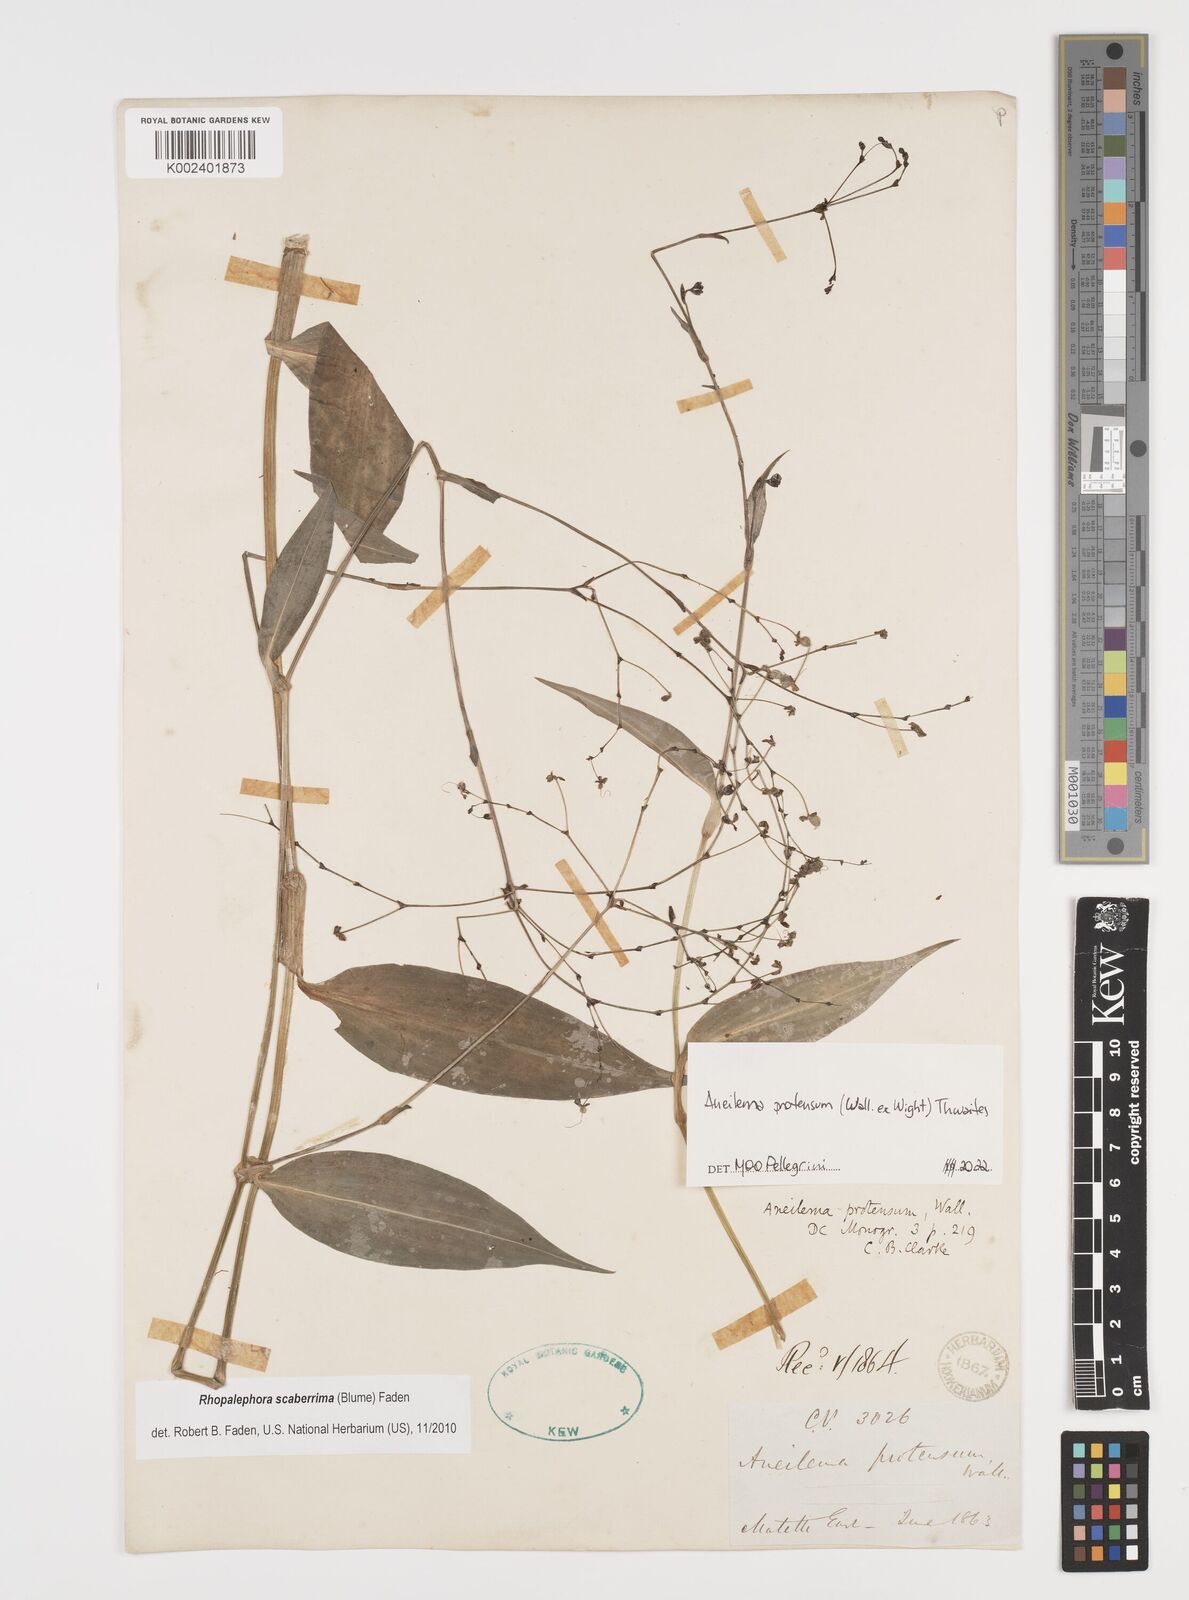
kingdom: Plantae
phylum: Tracheophyta
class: Liliopsida
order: Commelinales
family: Commelinaceae
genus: Rhopalephora
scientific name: Rhopalephora
